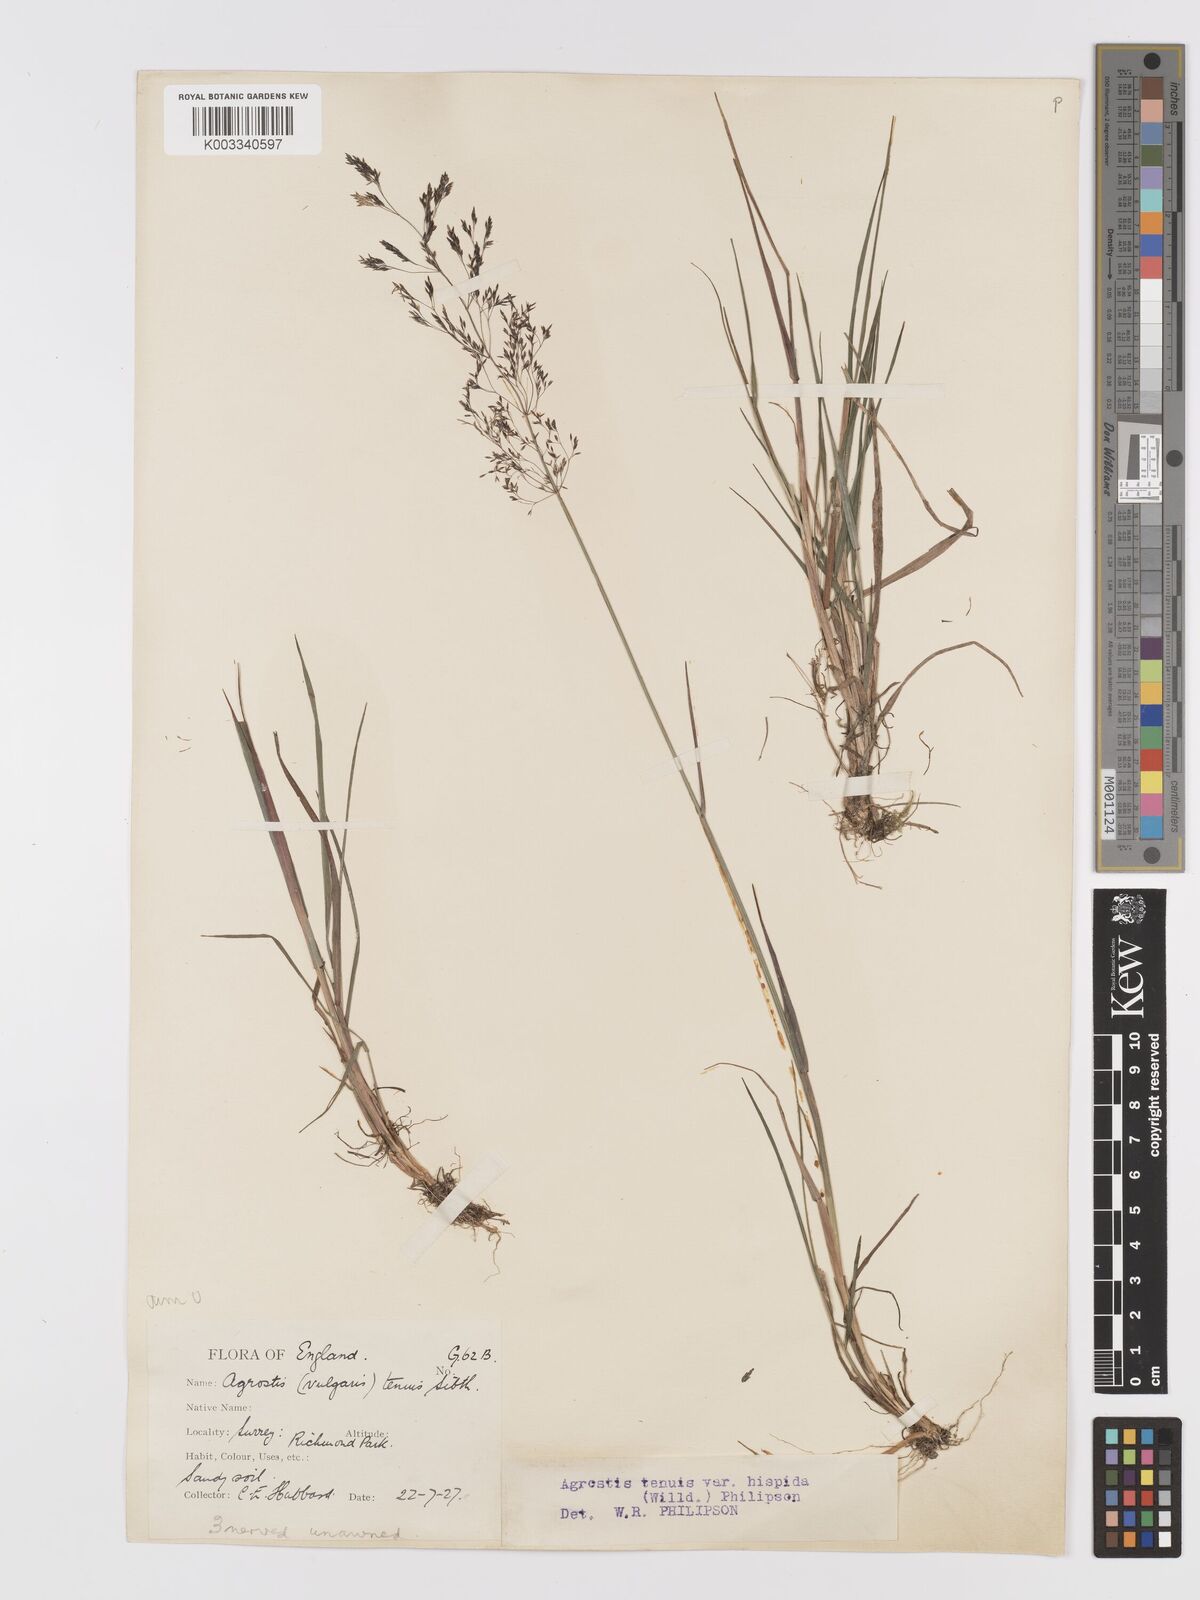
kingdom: Plantae
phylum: Tracheophyta
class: Liliopsida
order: Poales
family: Poaceae
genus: Agrostis
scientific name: Agrostis capillaris
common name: Colonial bentgrass
